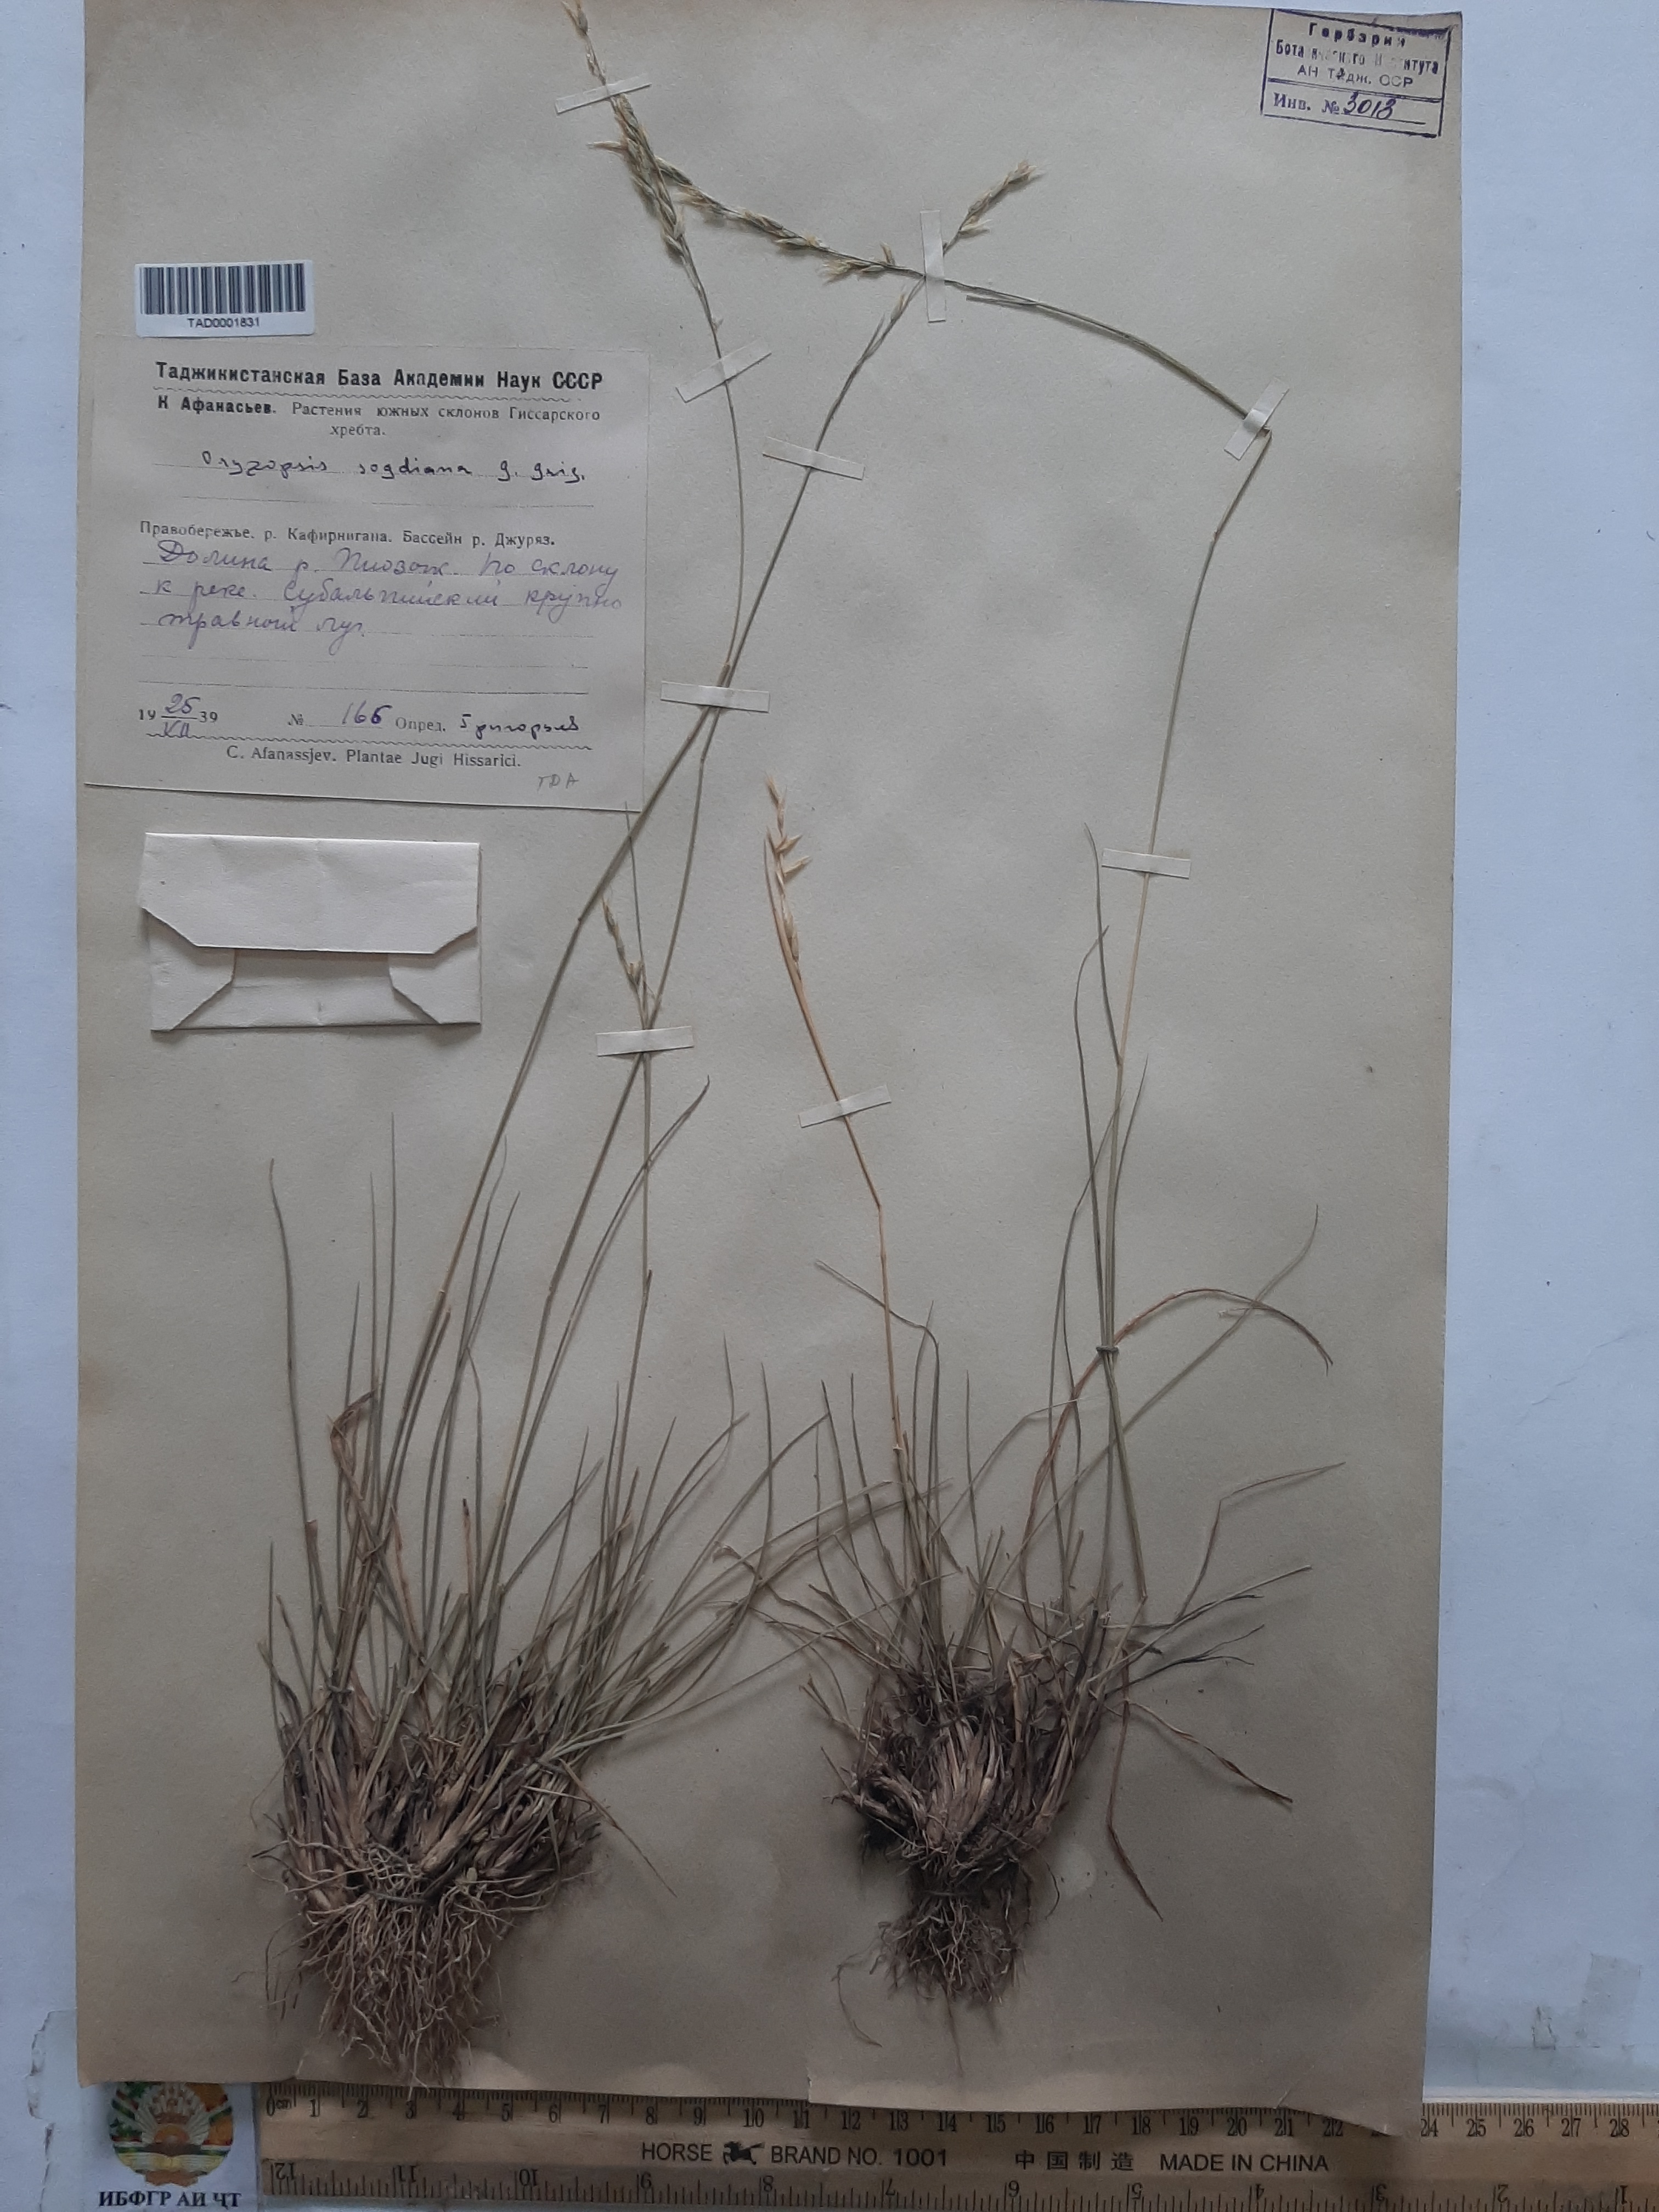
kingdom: Plantae
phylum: Tracheophyta
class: Liliopsida
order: Poales
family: Poaceae
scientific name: Poaceae
